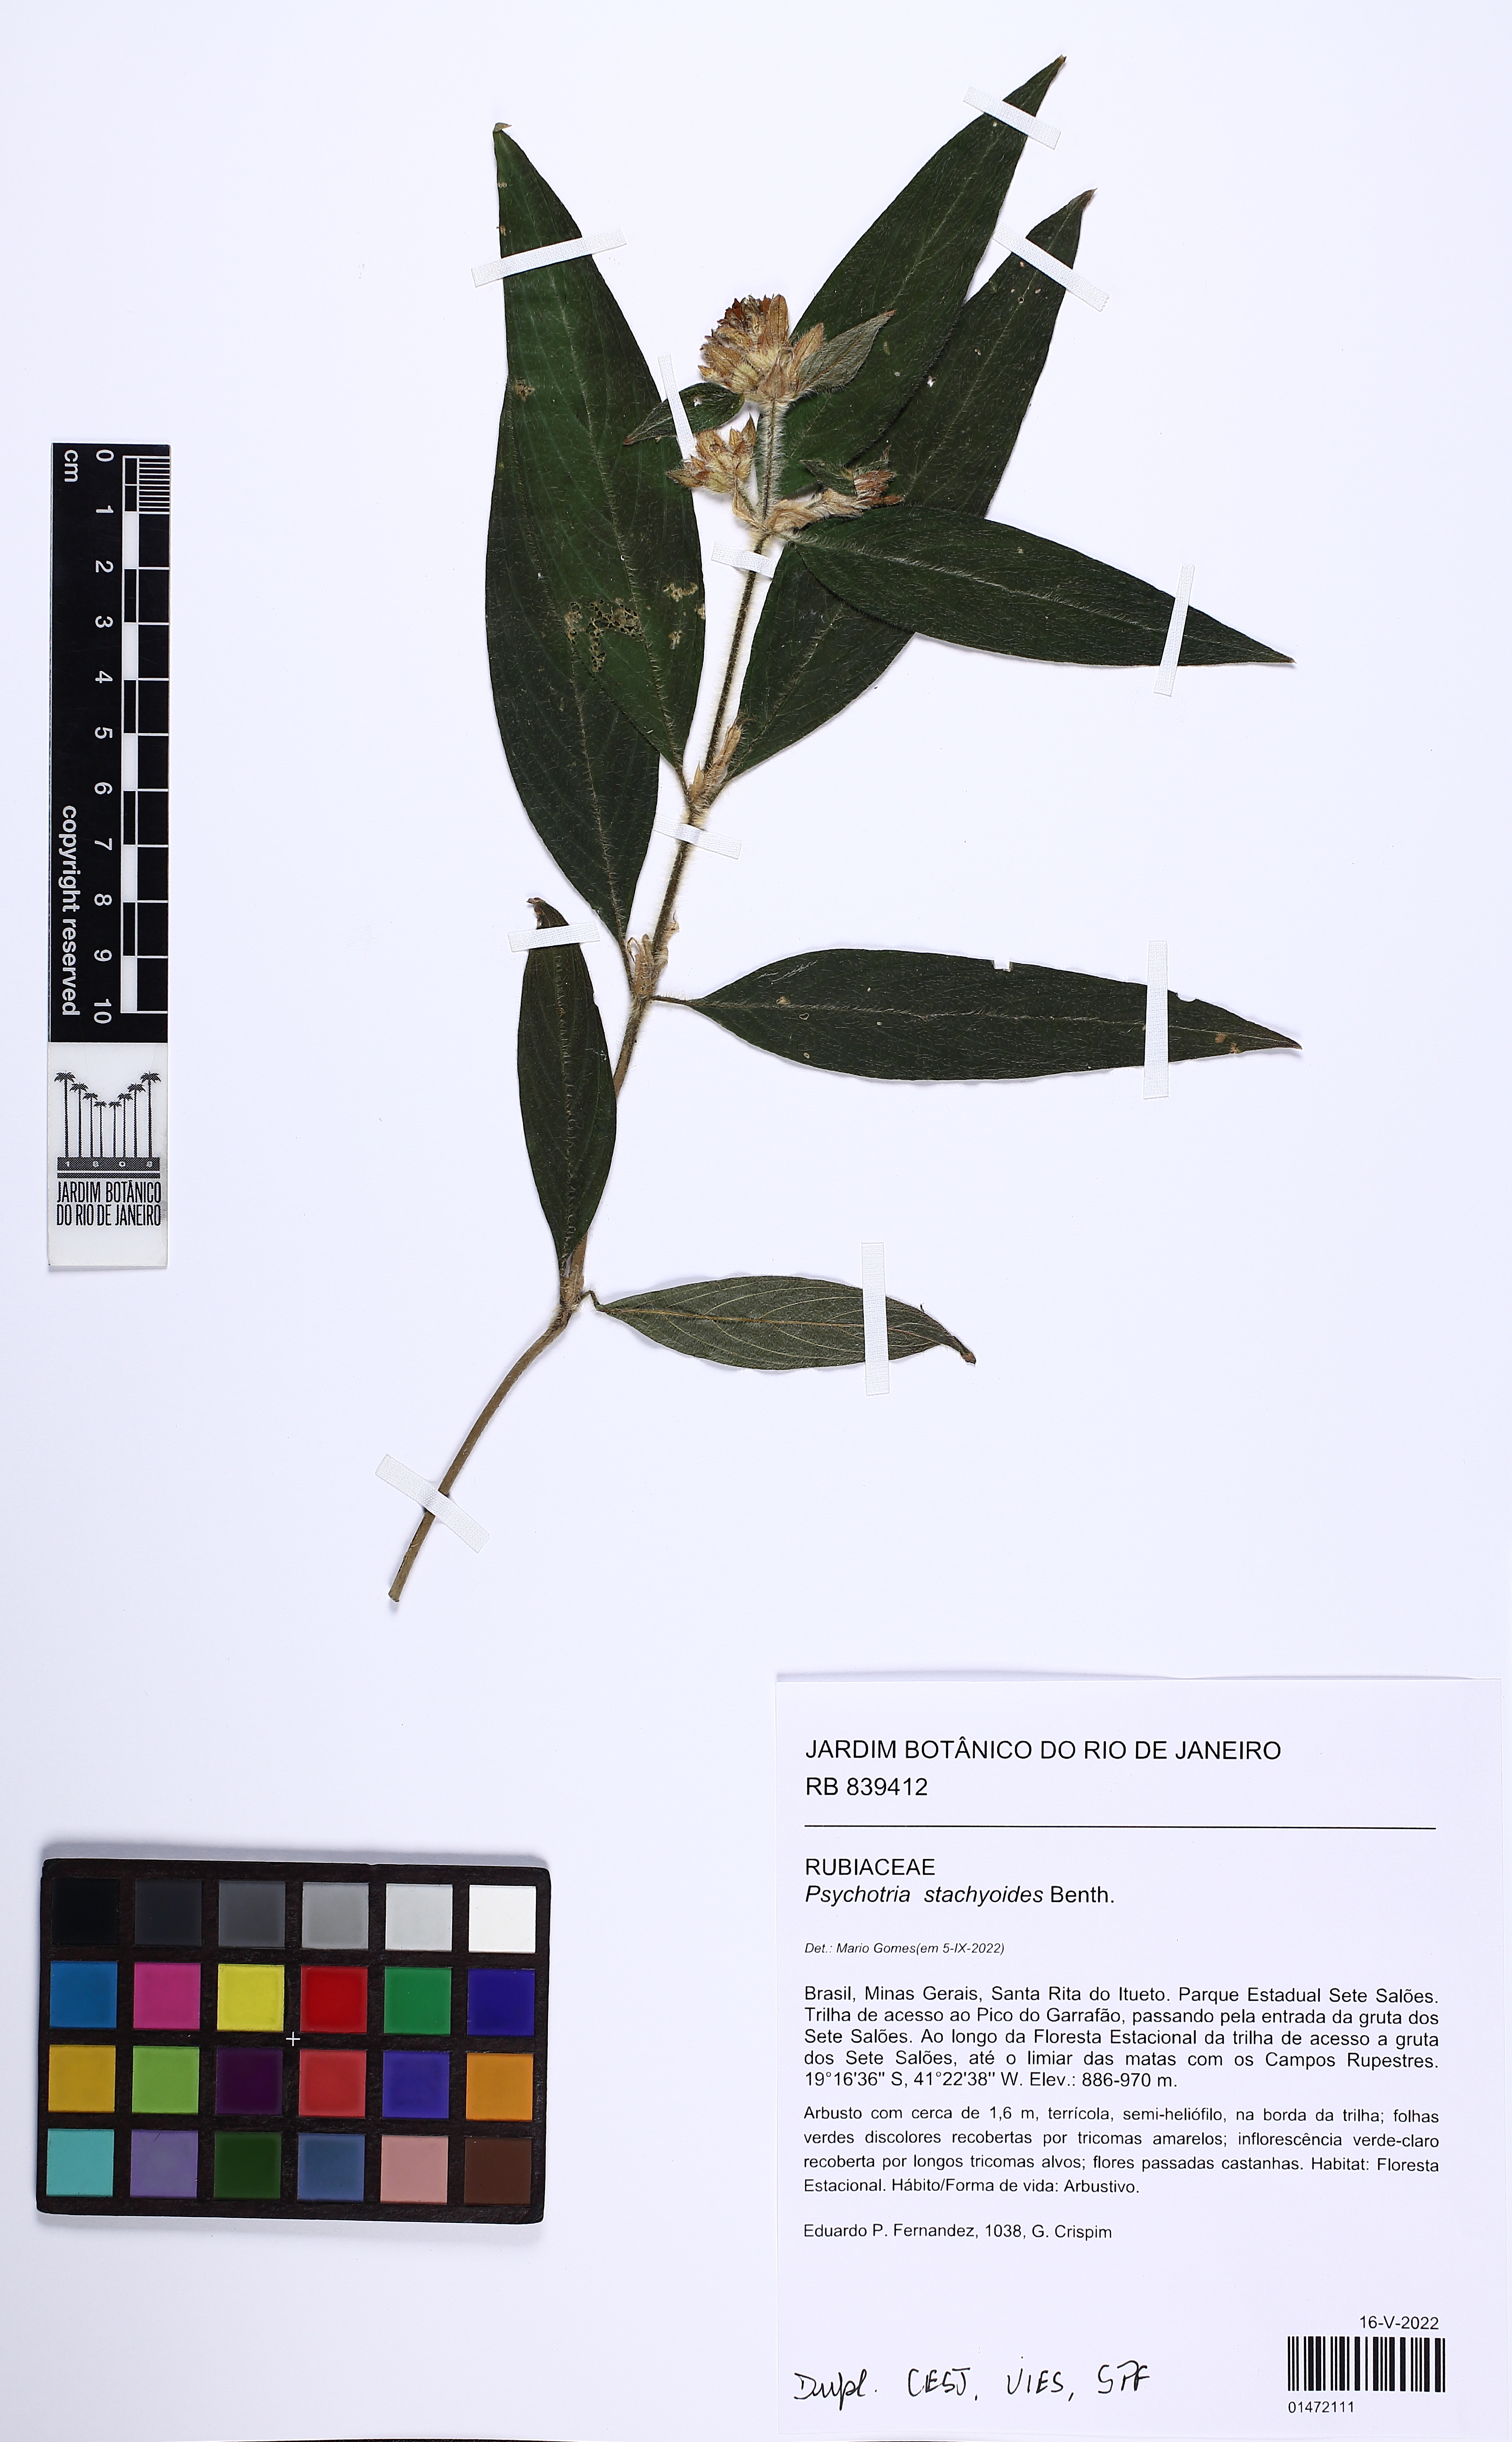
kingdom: Plantae
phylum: Tracheophyta
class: Magnoliopsida
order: Gentianales
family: Rubiaceae
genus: Psychotria
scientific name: Psychotria stachyoides
